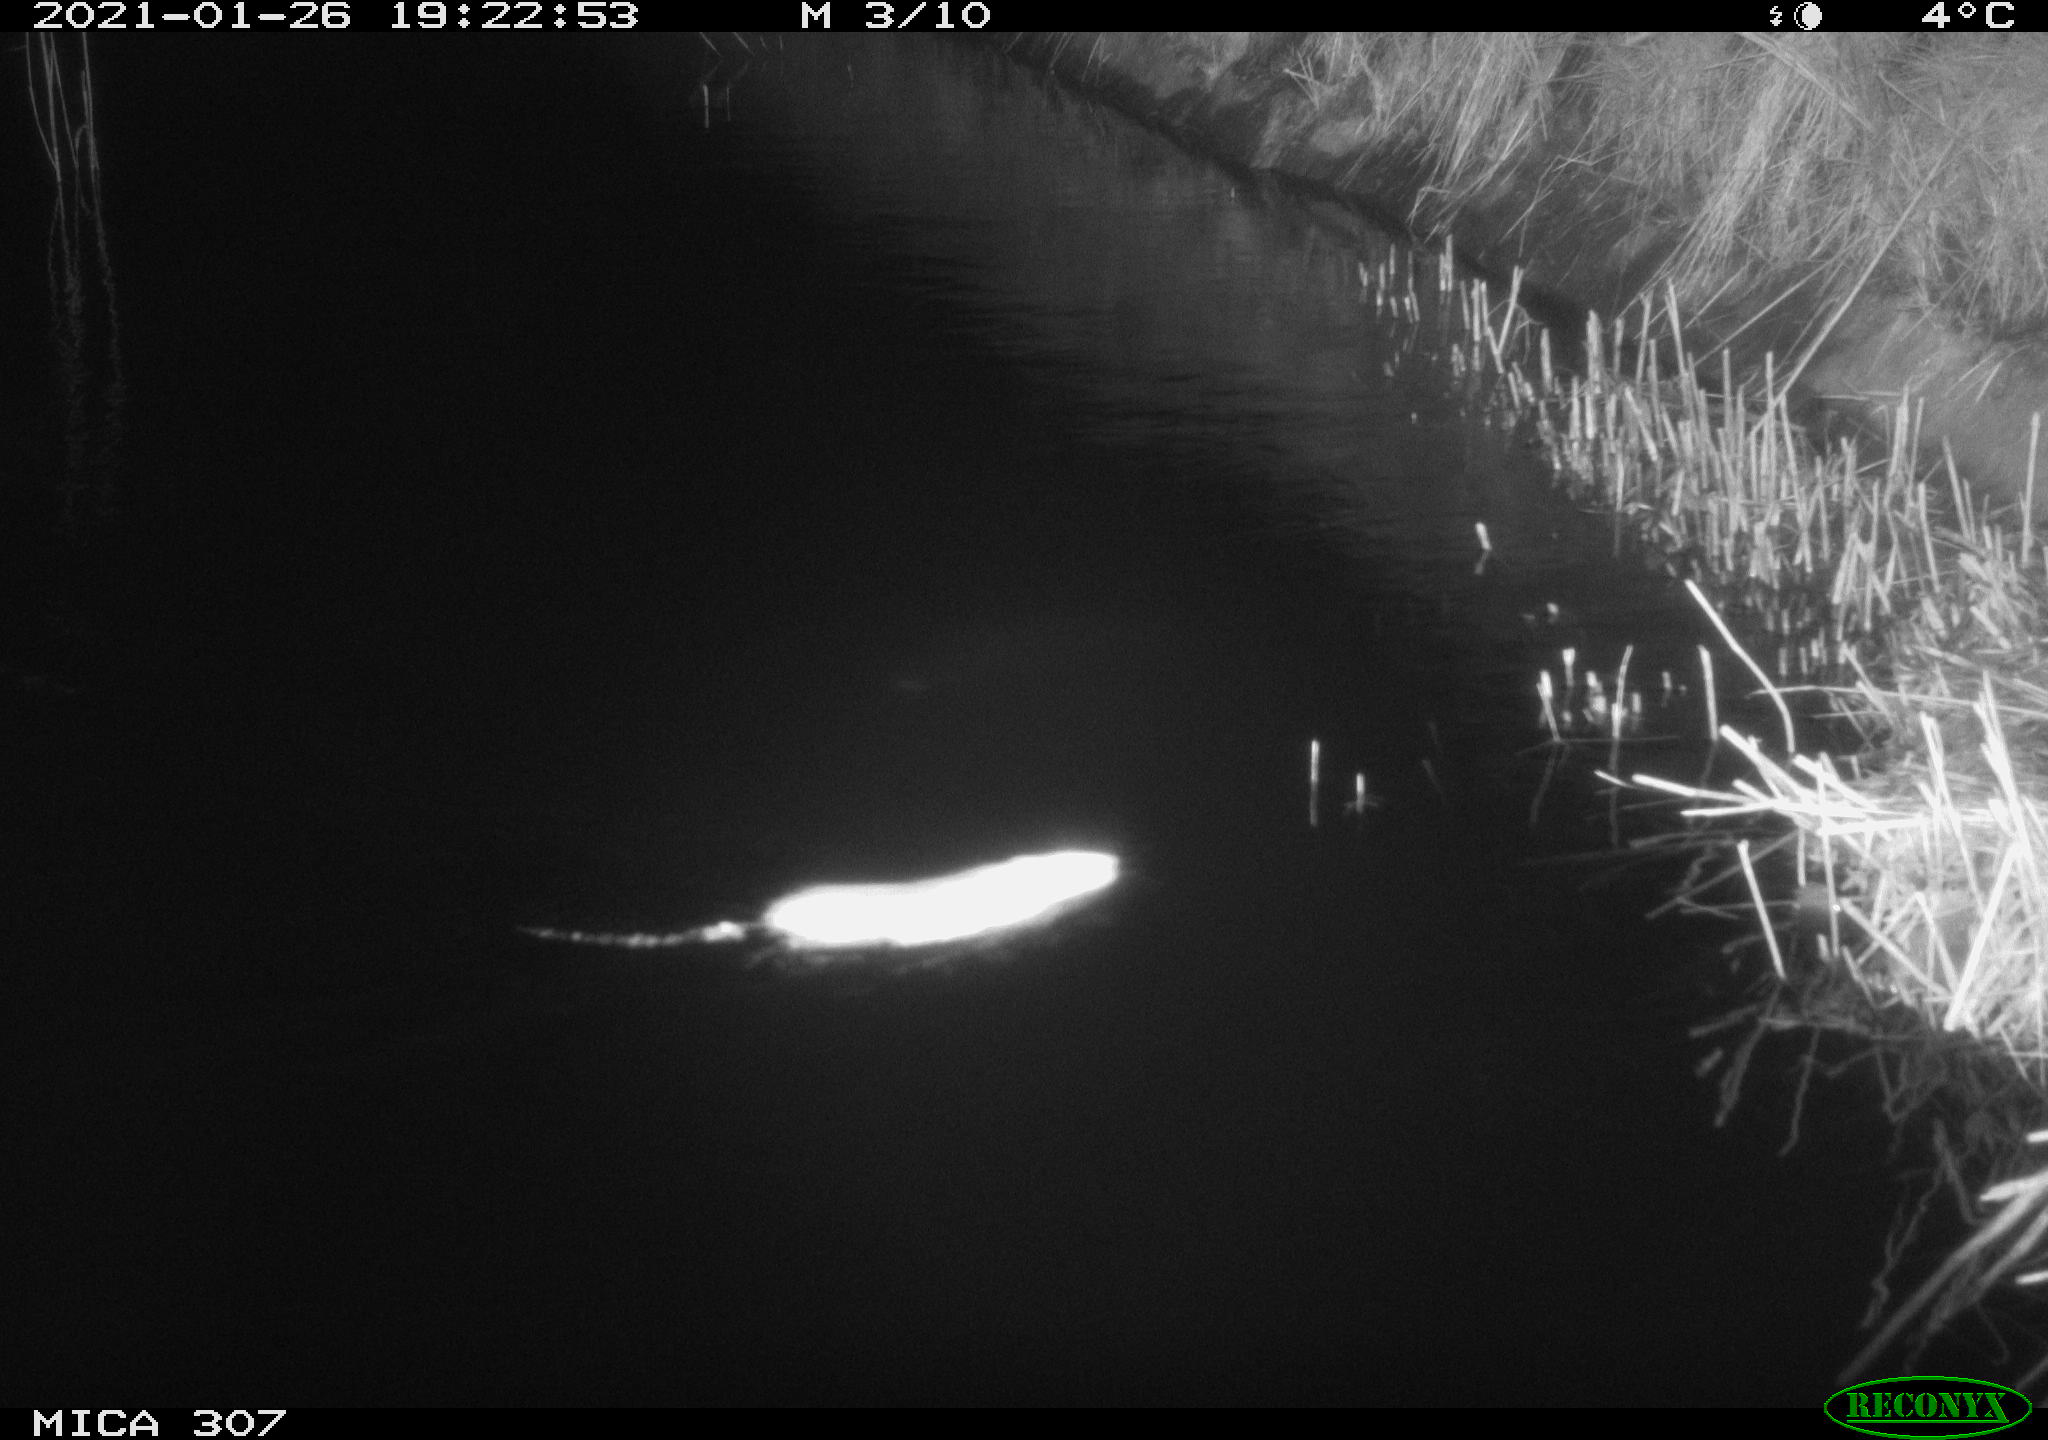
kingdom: Animalia
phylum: Chordata
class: Mammalia
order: Rodentia
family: Muridae
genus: Rattus
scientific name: Rattus norvegicus
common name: Brown rat
